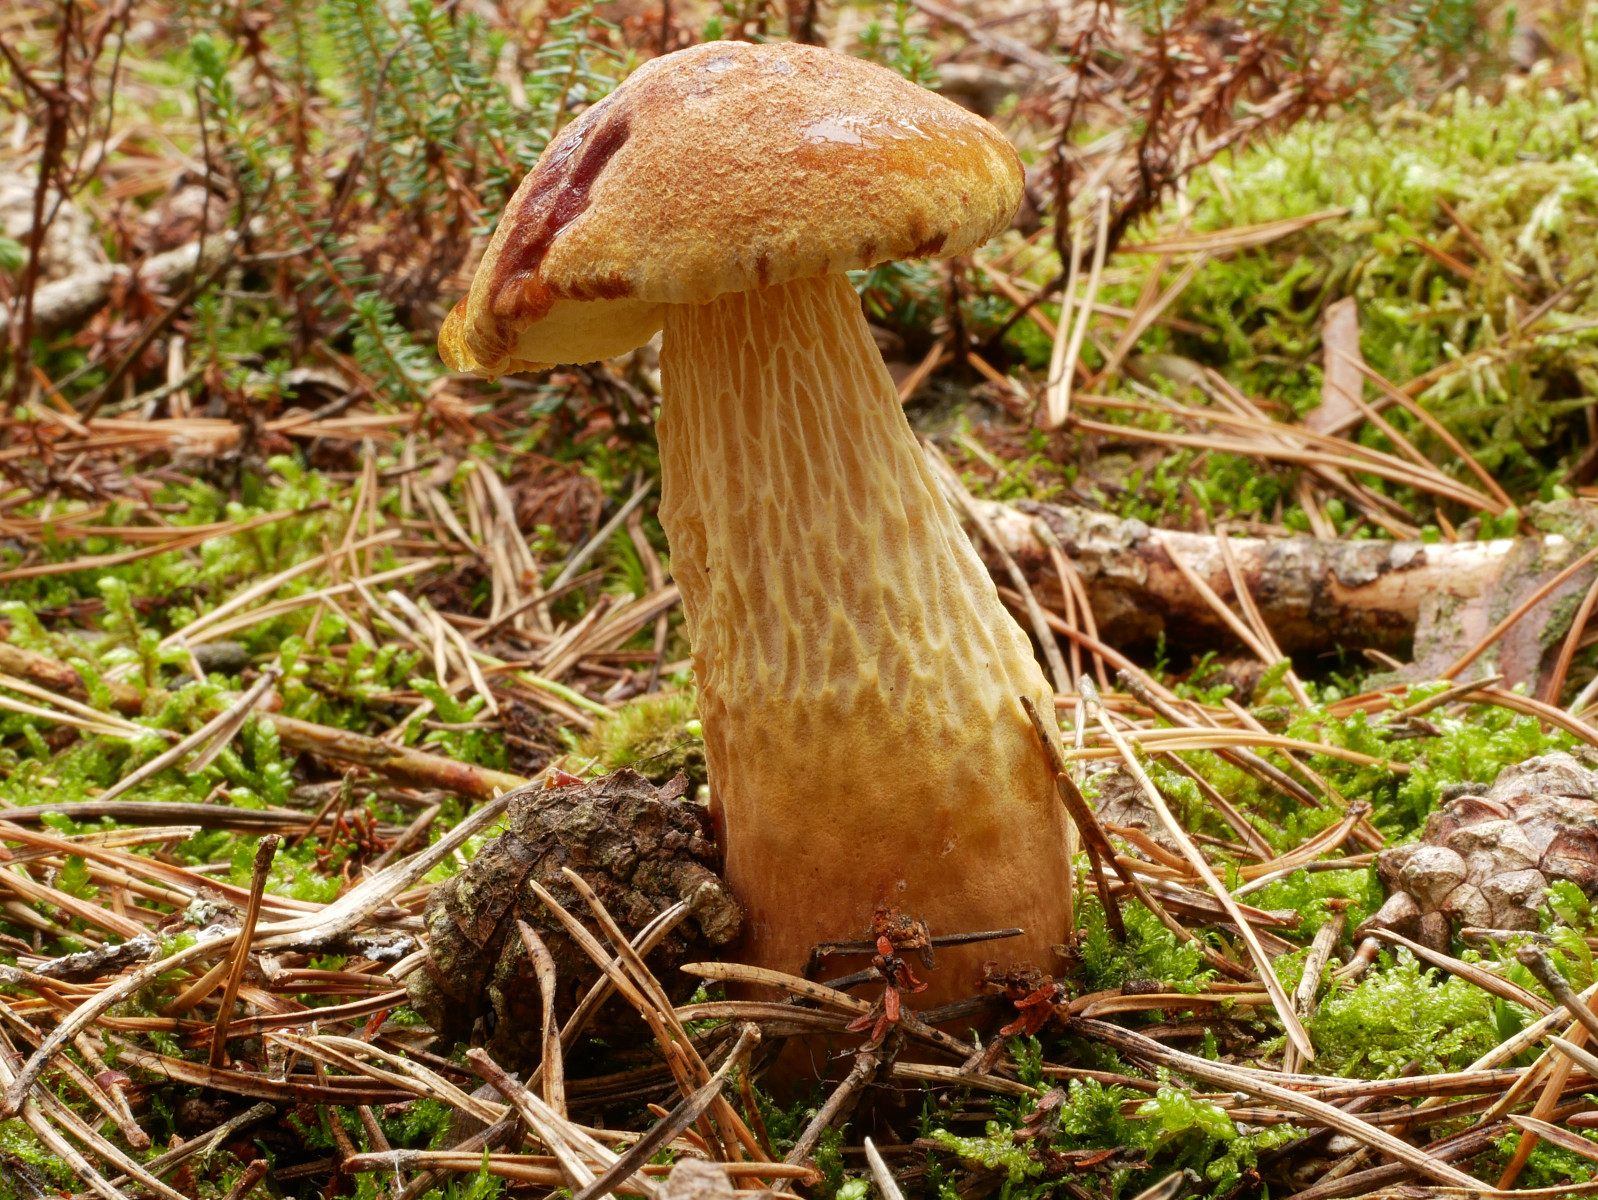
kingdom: Fungi
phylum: Basidiomycota
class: Agaricomycetes
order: Boletales
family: Boletaceae
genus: Aureoboletus
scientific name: Aureoboletus projectellus
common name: ribbestokket rørhat
